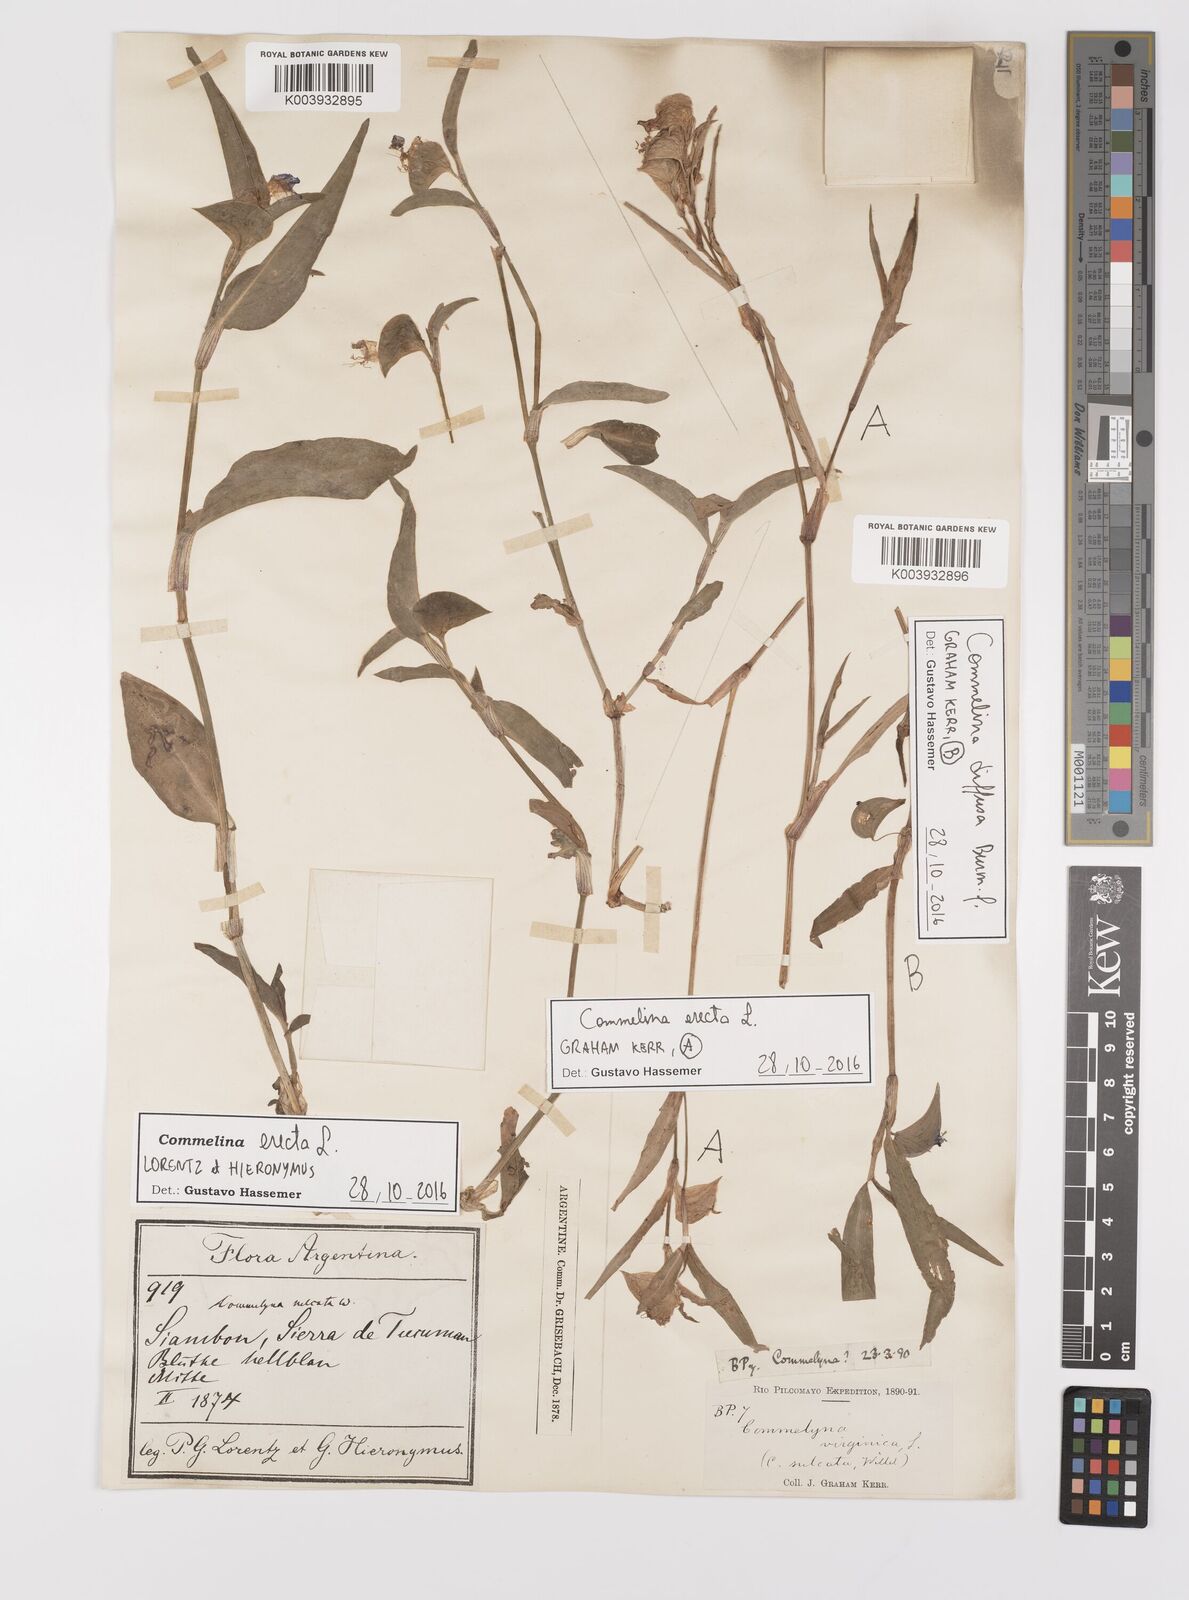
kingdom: Plantae
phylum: Tracheophyta
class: Liliopsida
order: Commelinales
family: Commelinaceae
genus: Commelina
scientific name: Commelina erecta
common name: Blousel blommetjie
